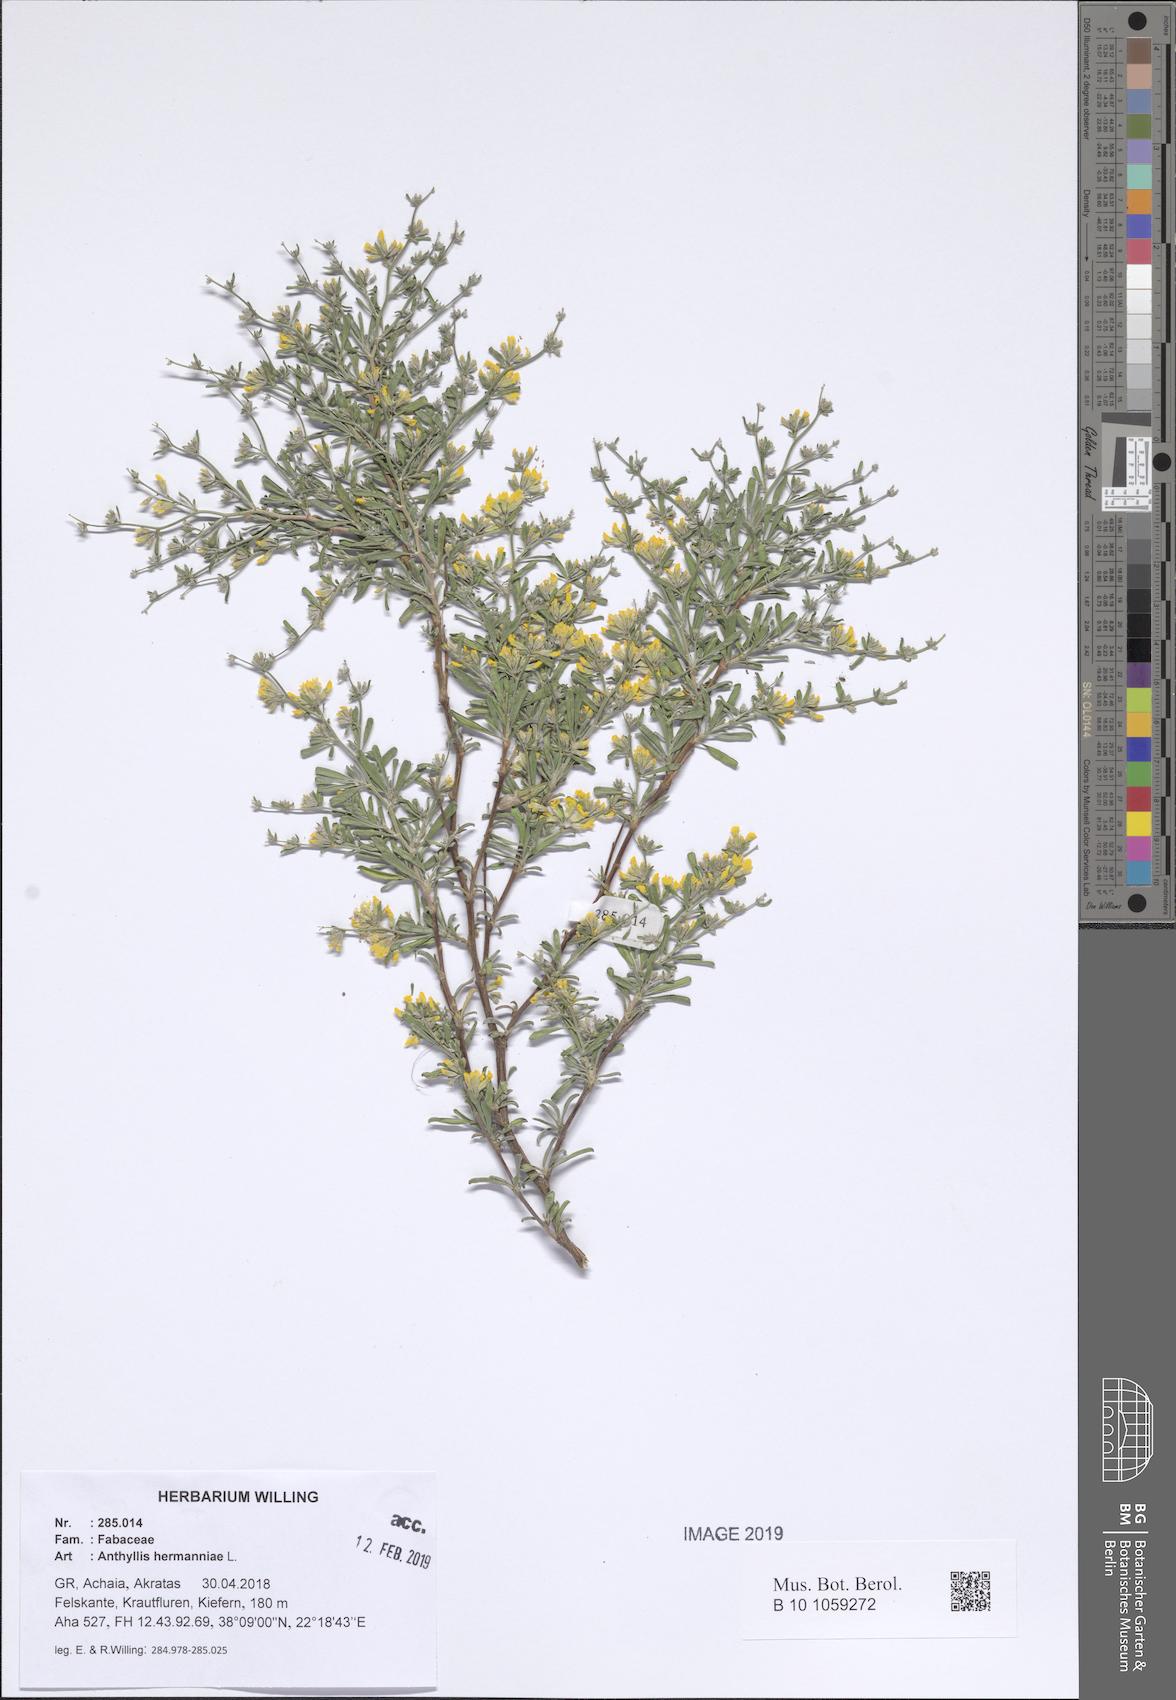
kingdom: Plantae
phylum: Tracheophyta
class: Magnoliopsida
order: Fabales
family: Fabaceae
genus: Anthyllis
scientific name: Anthyllis hermanniae
